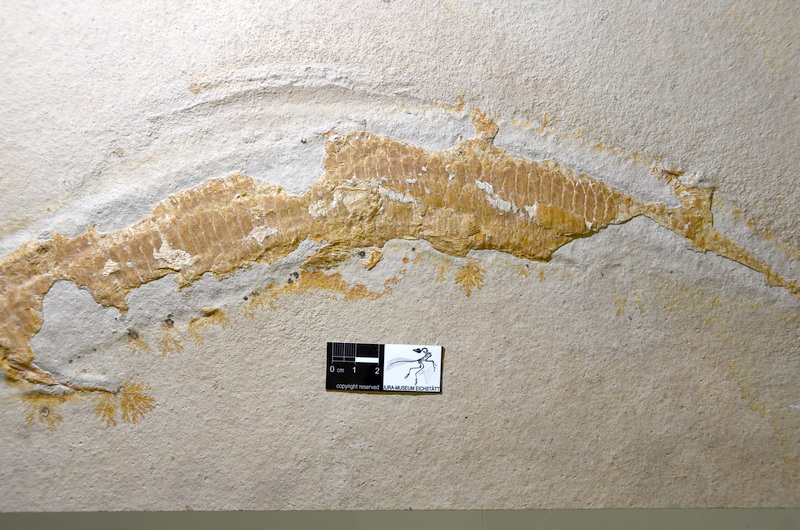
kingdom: Animalia
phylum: Chordata
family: Aspidorhynchidae
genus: Aspidorhynchus
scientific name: Aspidorhynchus acutirostris
